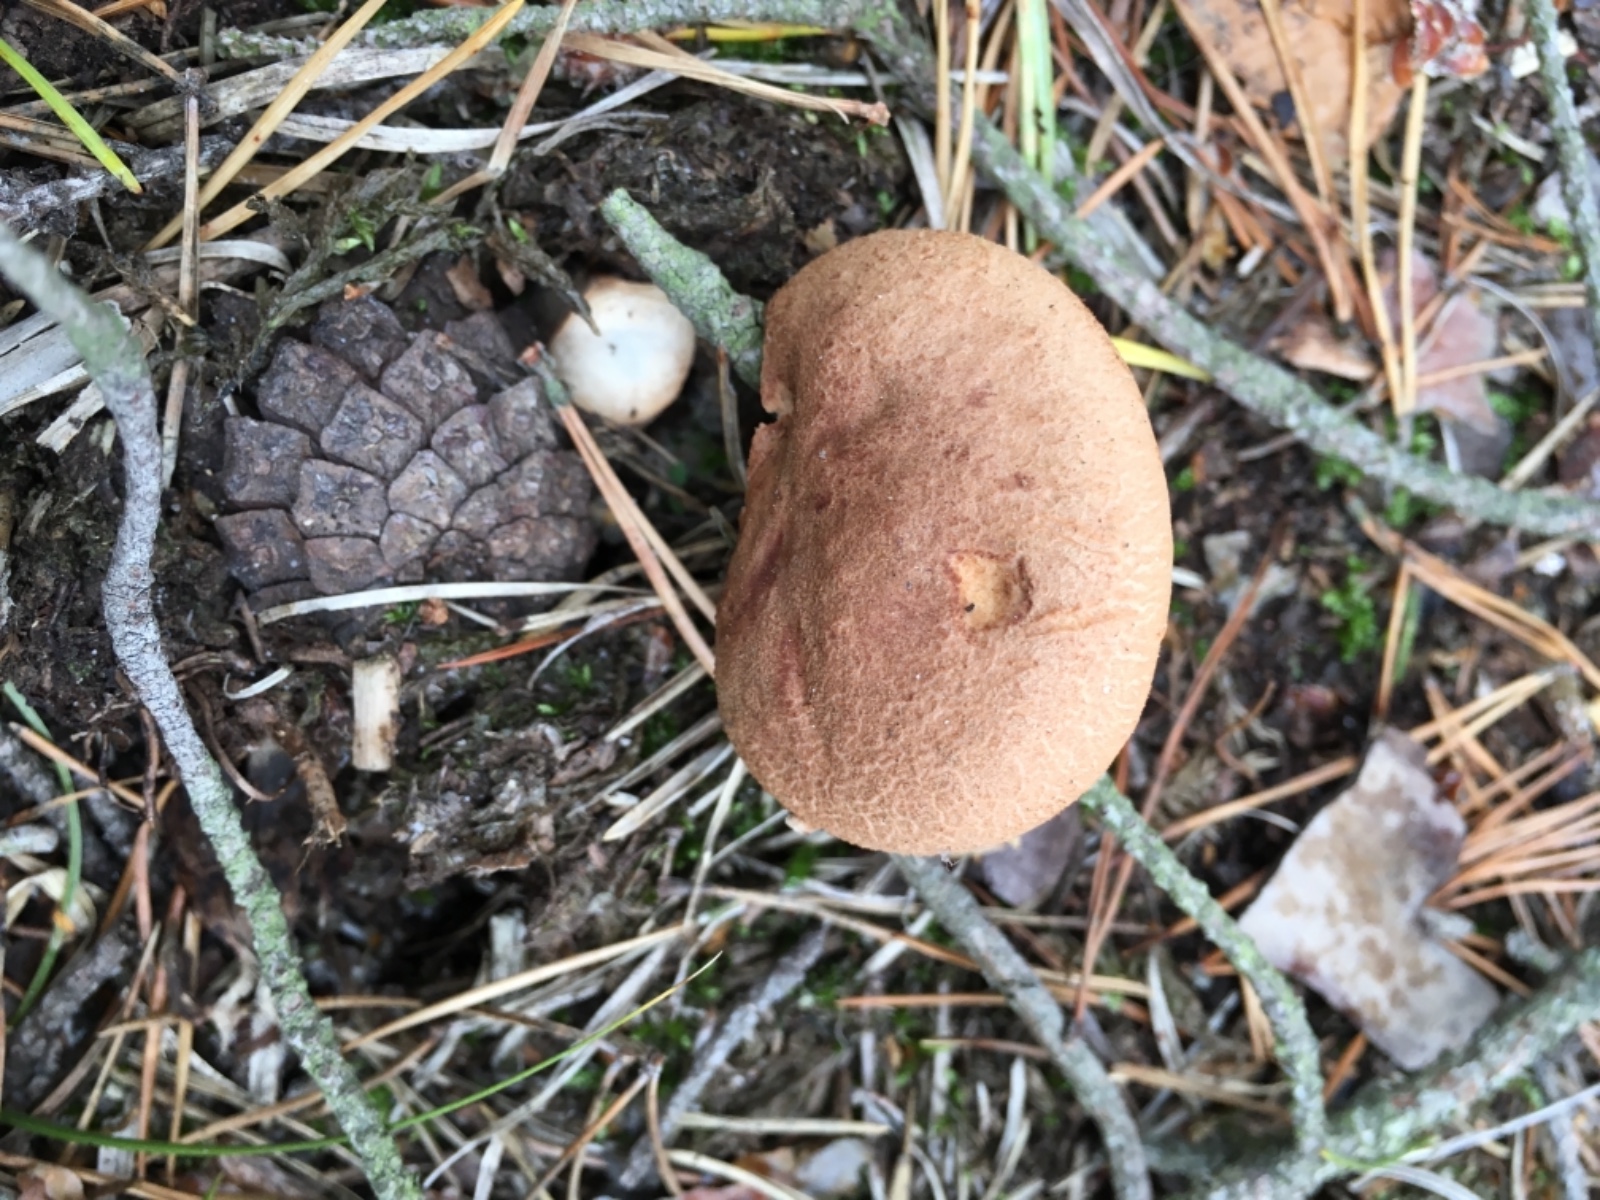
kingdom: Fungi
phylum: Basidiomycota
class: Agaricomycetes
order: Russulales
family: Russulaceae
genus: Lactarius
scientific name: Lactarius helvus
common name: mose-mælkehat
